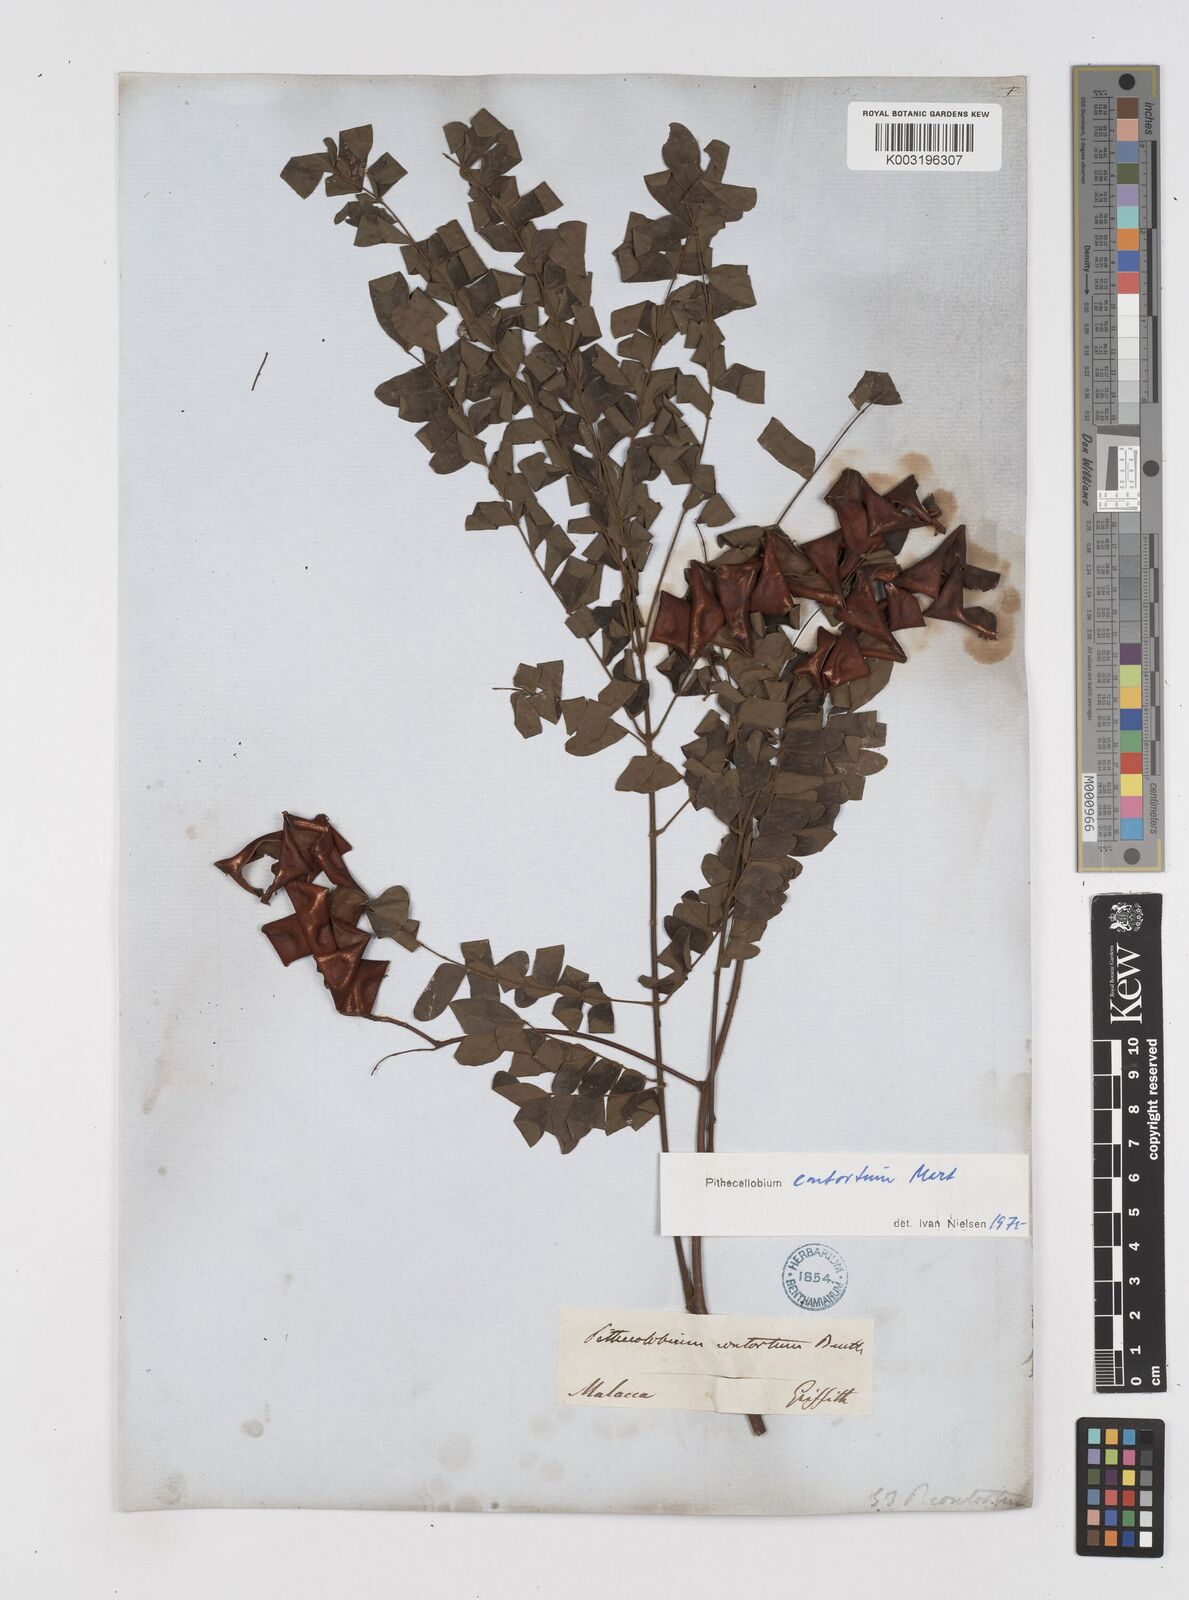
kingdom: Plantae
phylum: Tracheophyta
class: Magnoliopsida
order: Fabales
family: Fabaceae
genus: Archidendron
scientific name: Archidendron contortum
